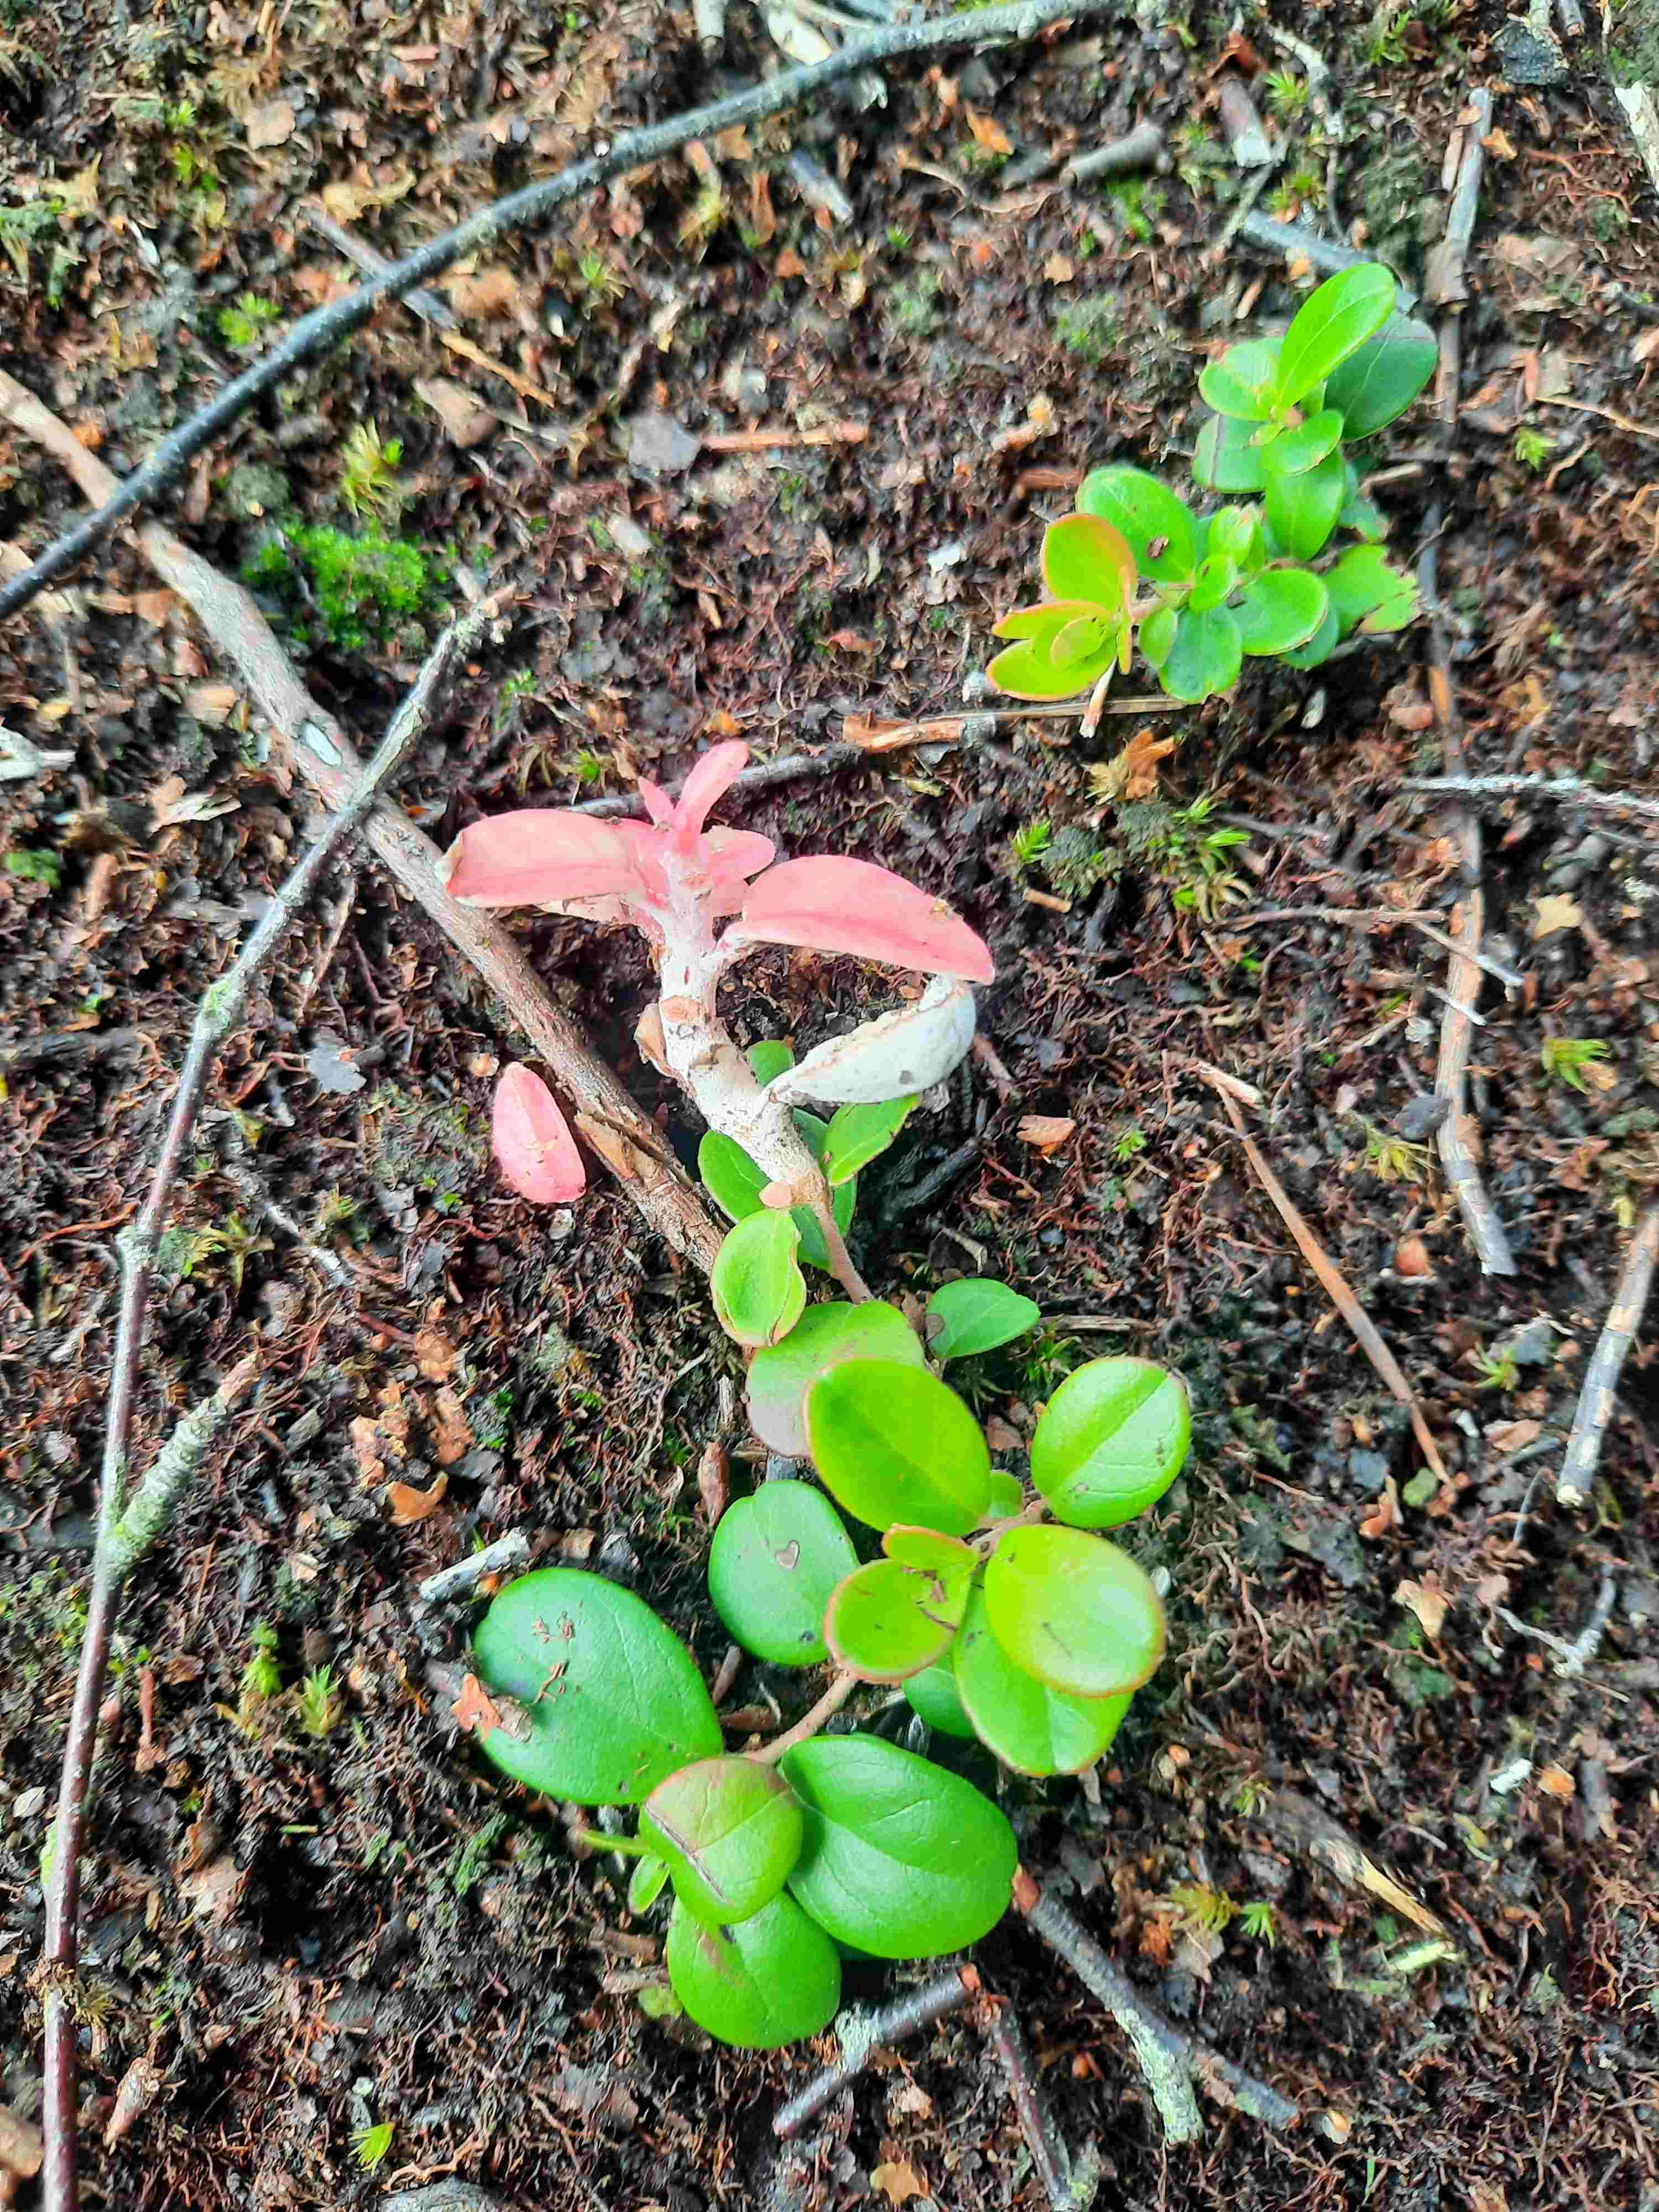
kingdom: Fungi
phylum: Basidiomycota
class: Exobasidiomycetes
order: Exobasidiales
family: Exobasidiaceae
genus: Exobasidium
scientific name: Exobasidium vaccinii
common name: tyttebærblad-bøllesvamp
